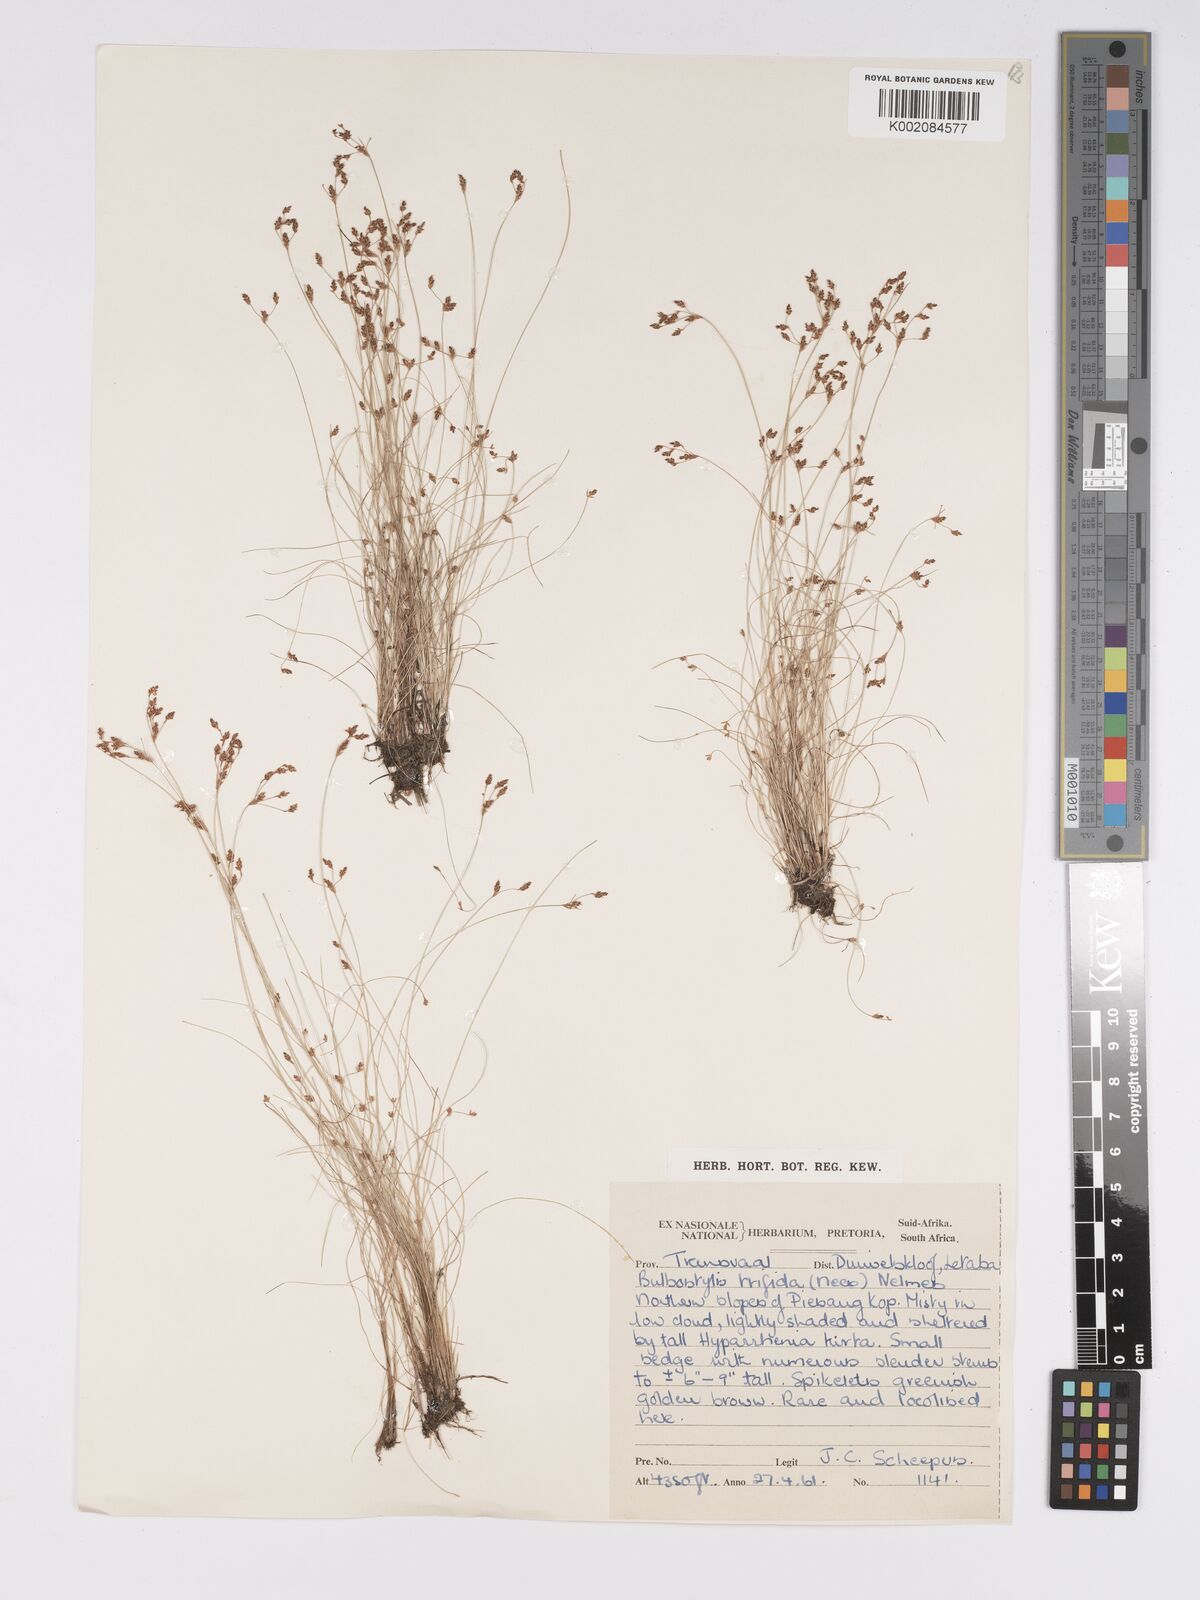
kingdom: Plantae
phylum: Tracheophyta
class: Liliopsida
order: Poales
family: Cyperaceae
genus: Bulbostylis
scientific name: Bulbostylis capillaris
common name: Densetuft hairsedge
